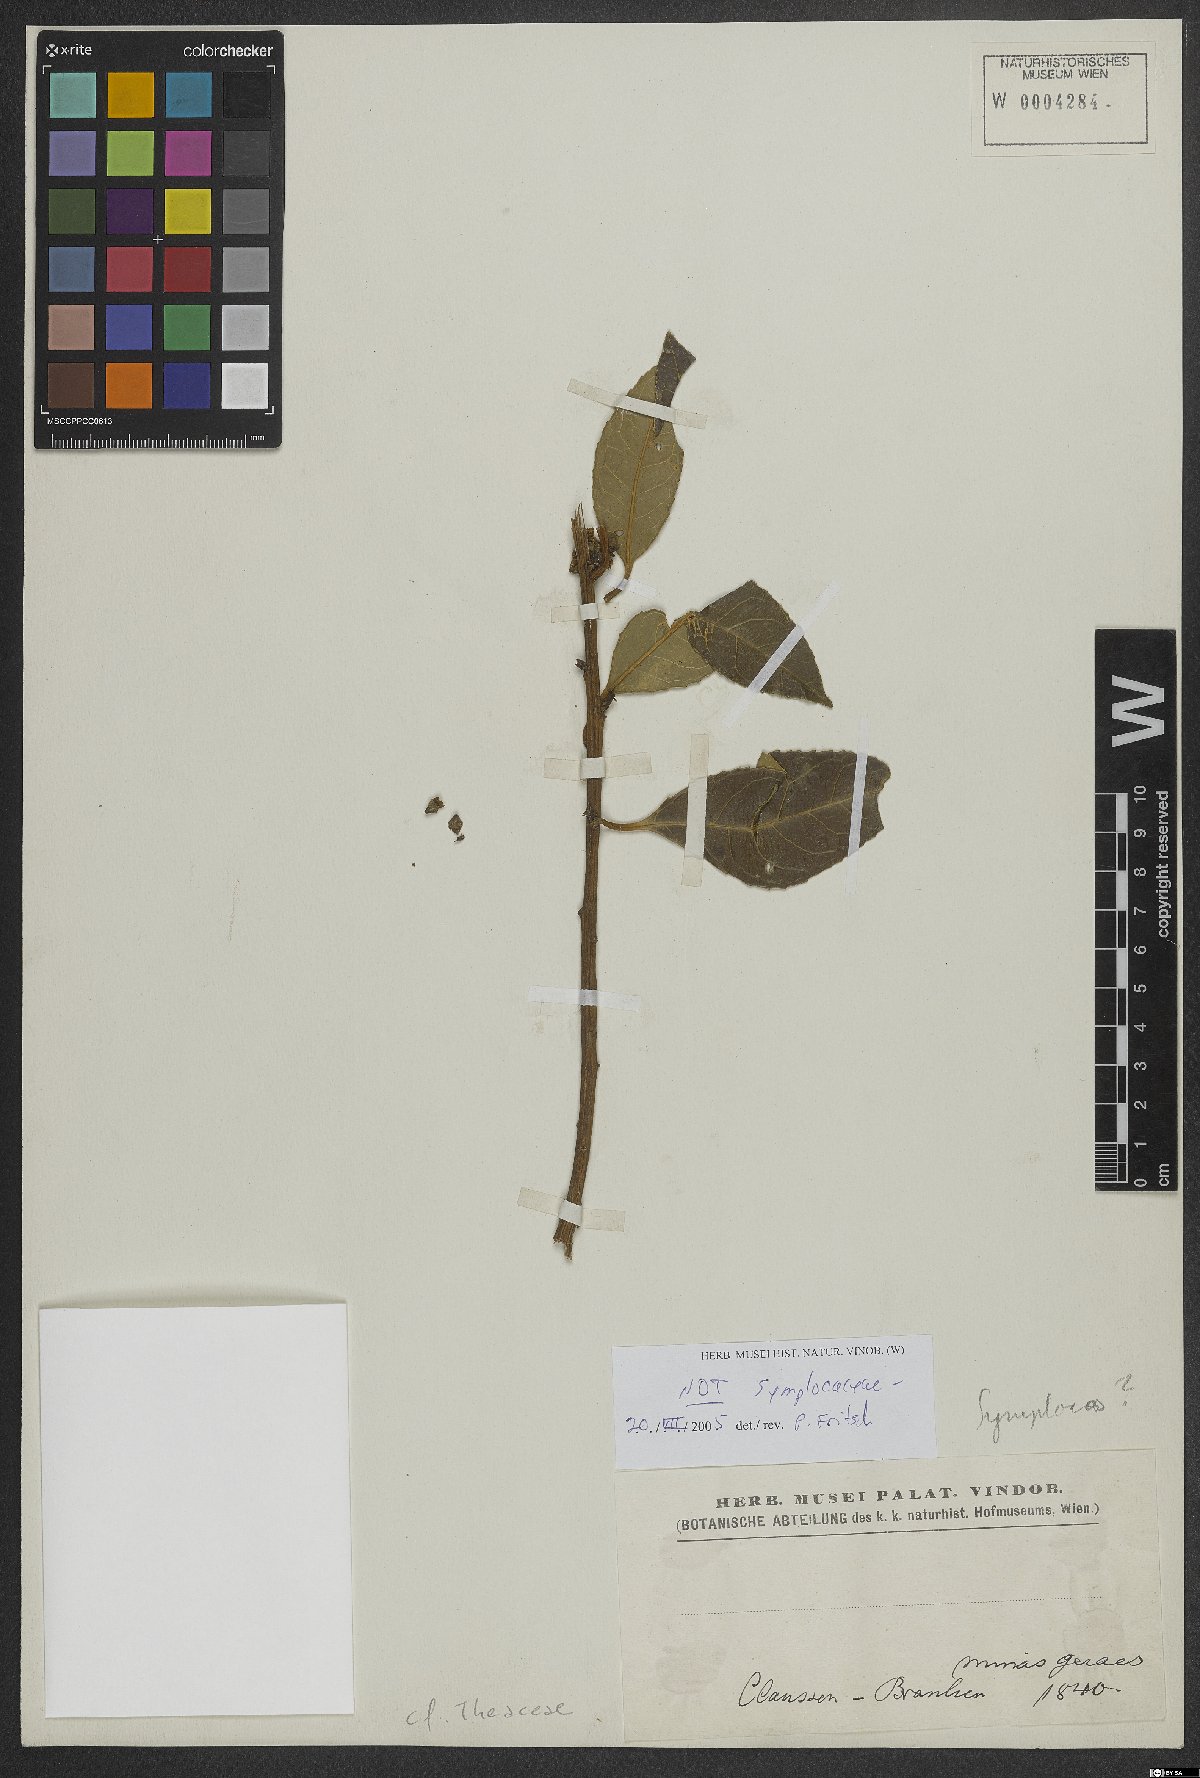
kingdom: Plantae
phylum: Tracheophyta
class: Magnoliopsida
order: Ericales
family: Theaceae
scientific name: Theaceae
